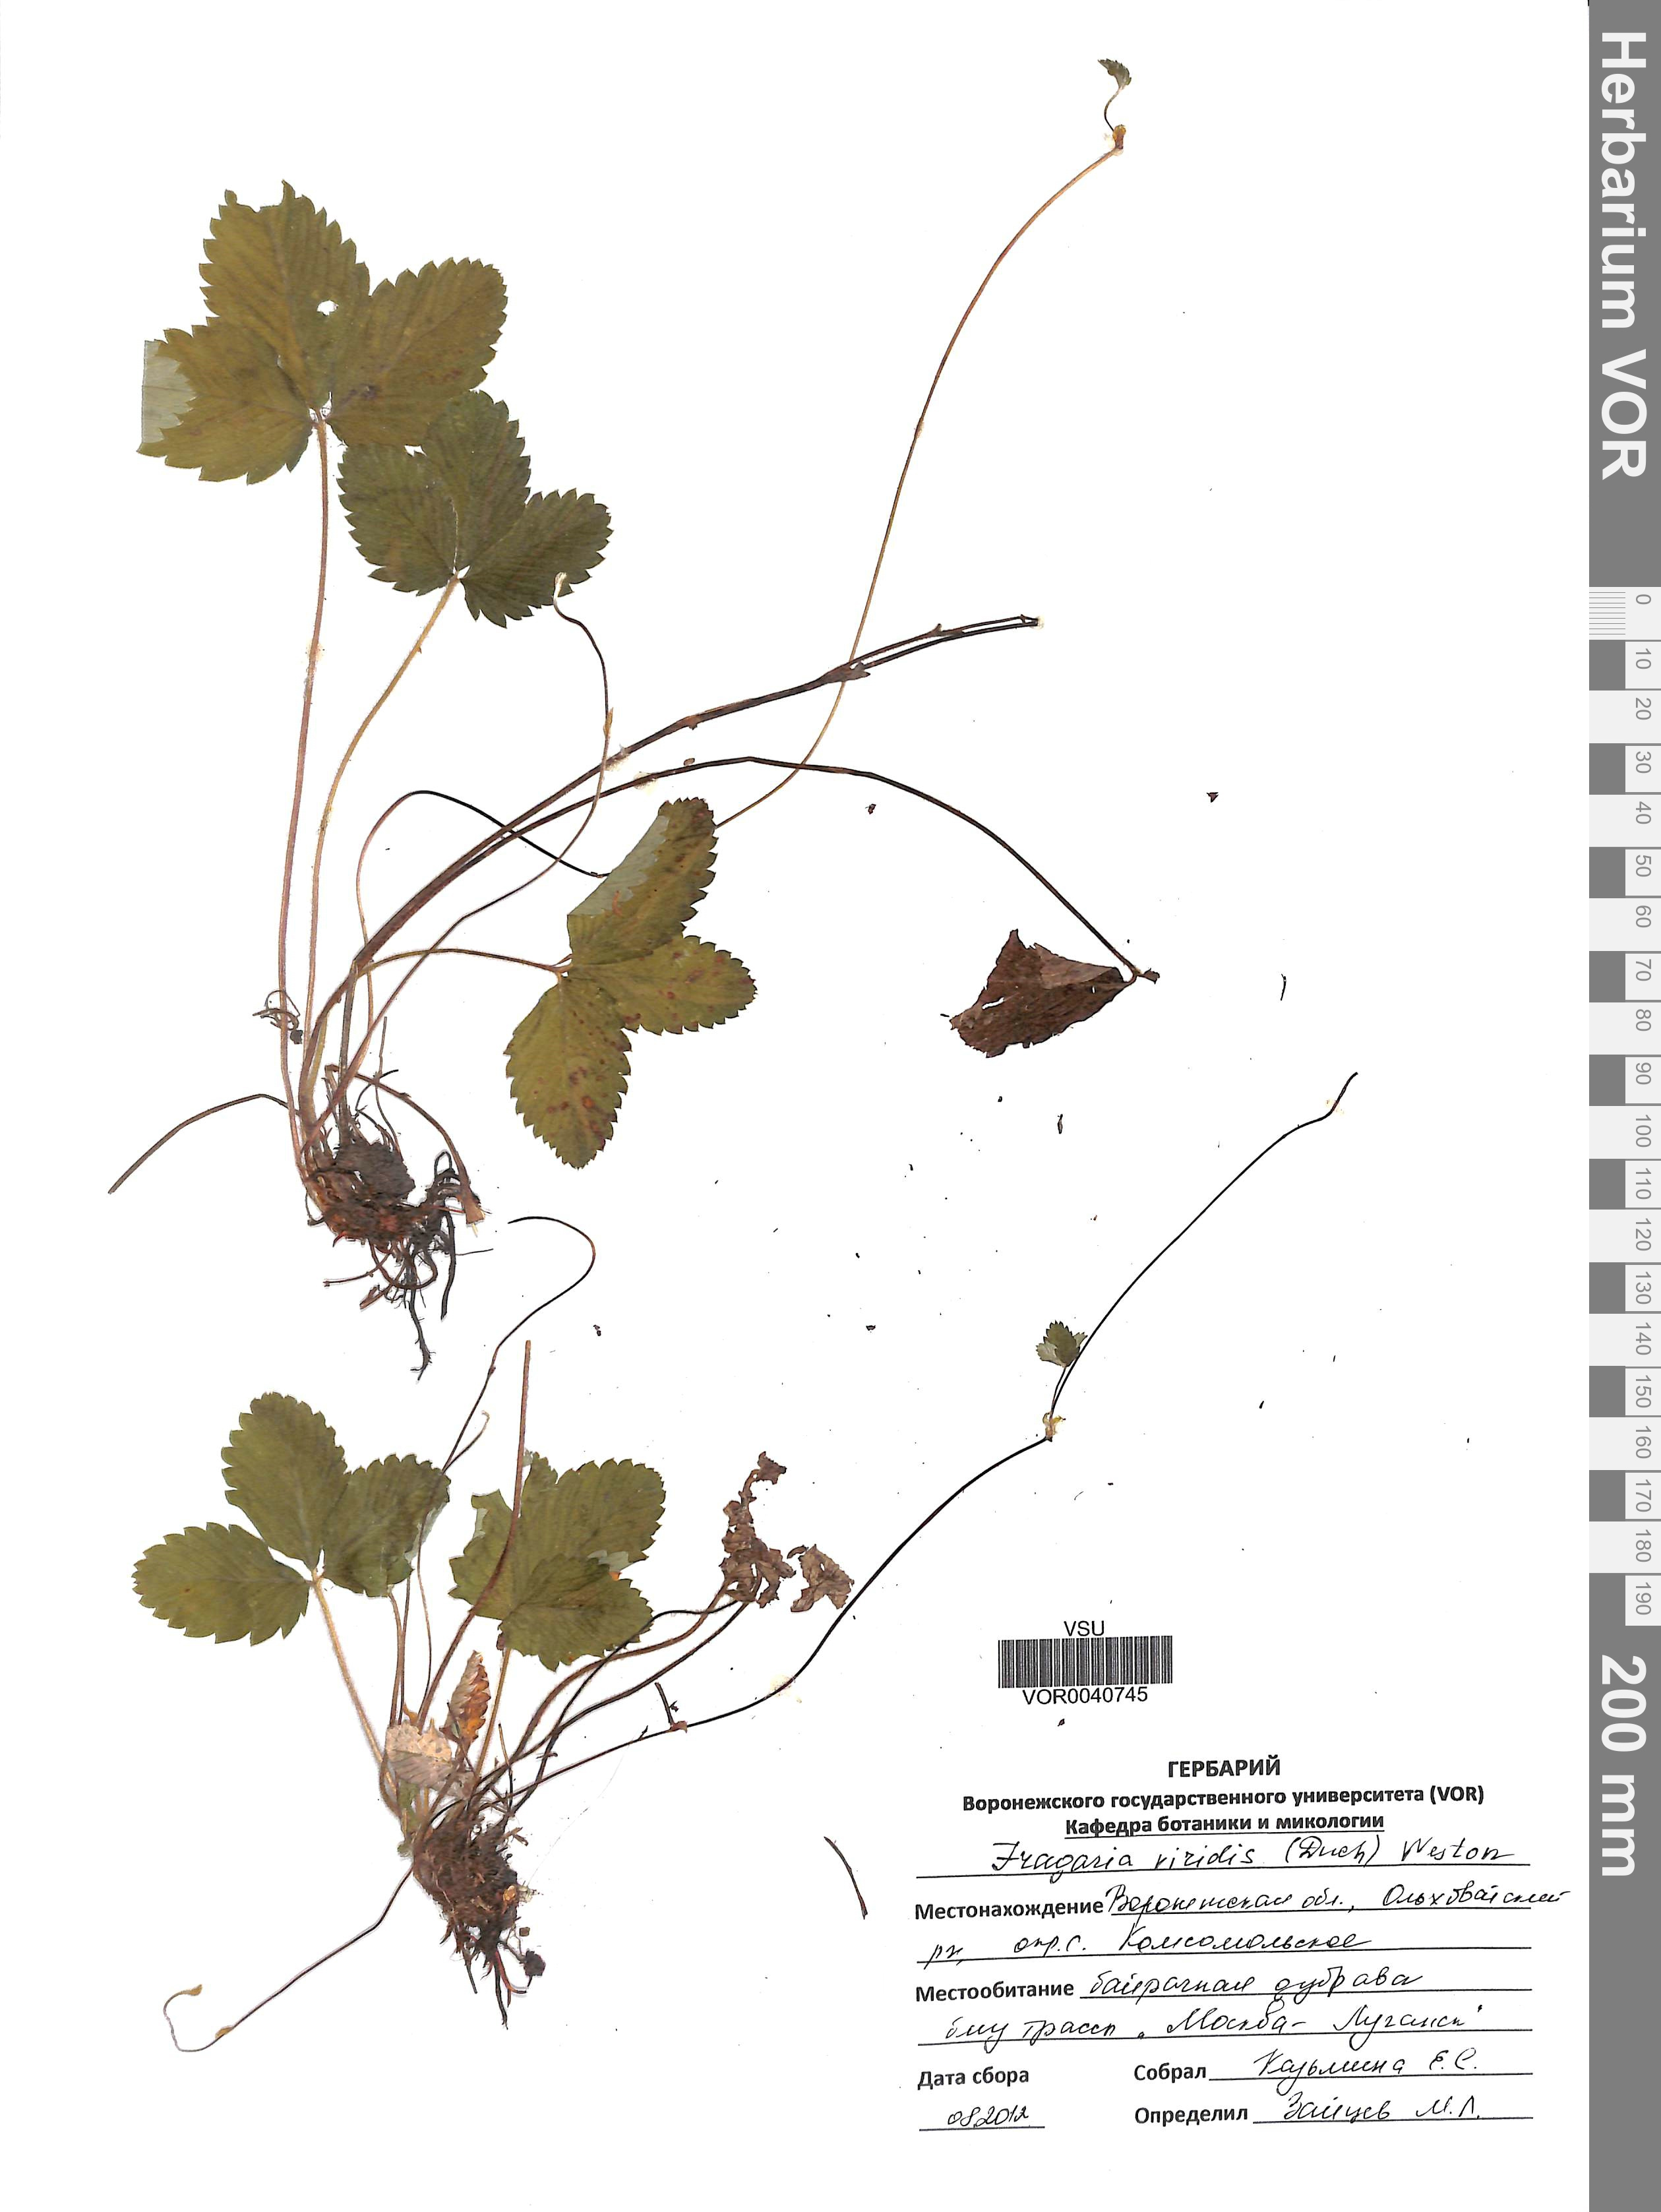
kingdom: Plantae
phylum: Tracheophyta
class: Magnoliopsida
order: Rosales
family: Rosaceae
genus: Fragaria
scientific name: Fragaria viridis
